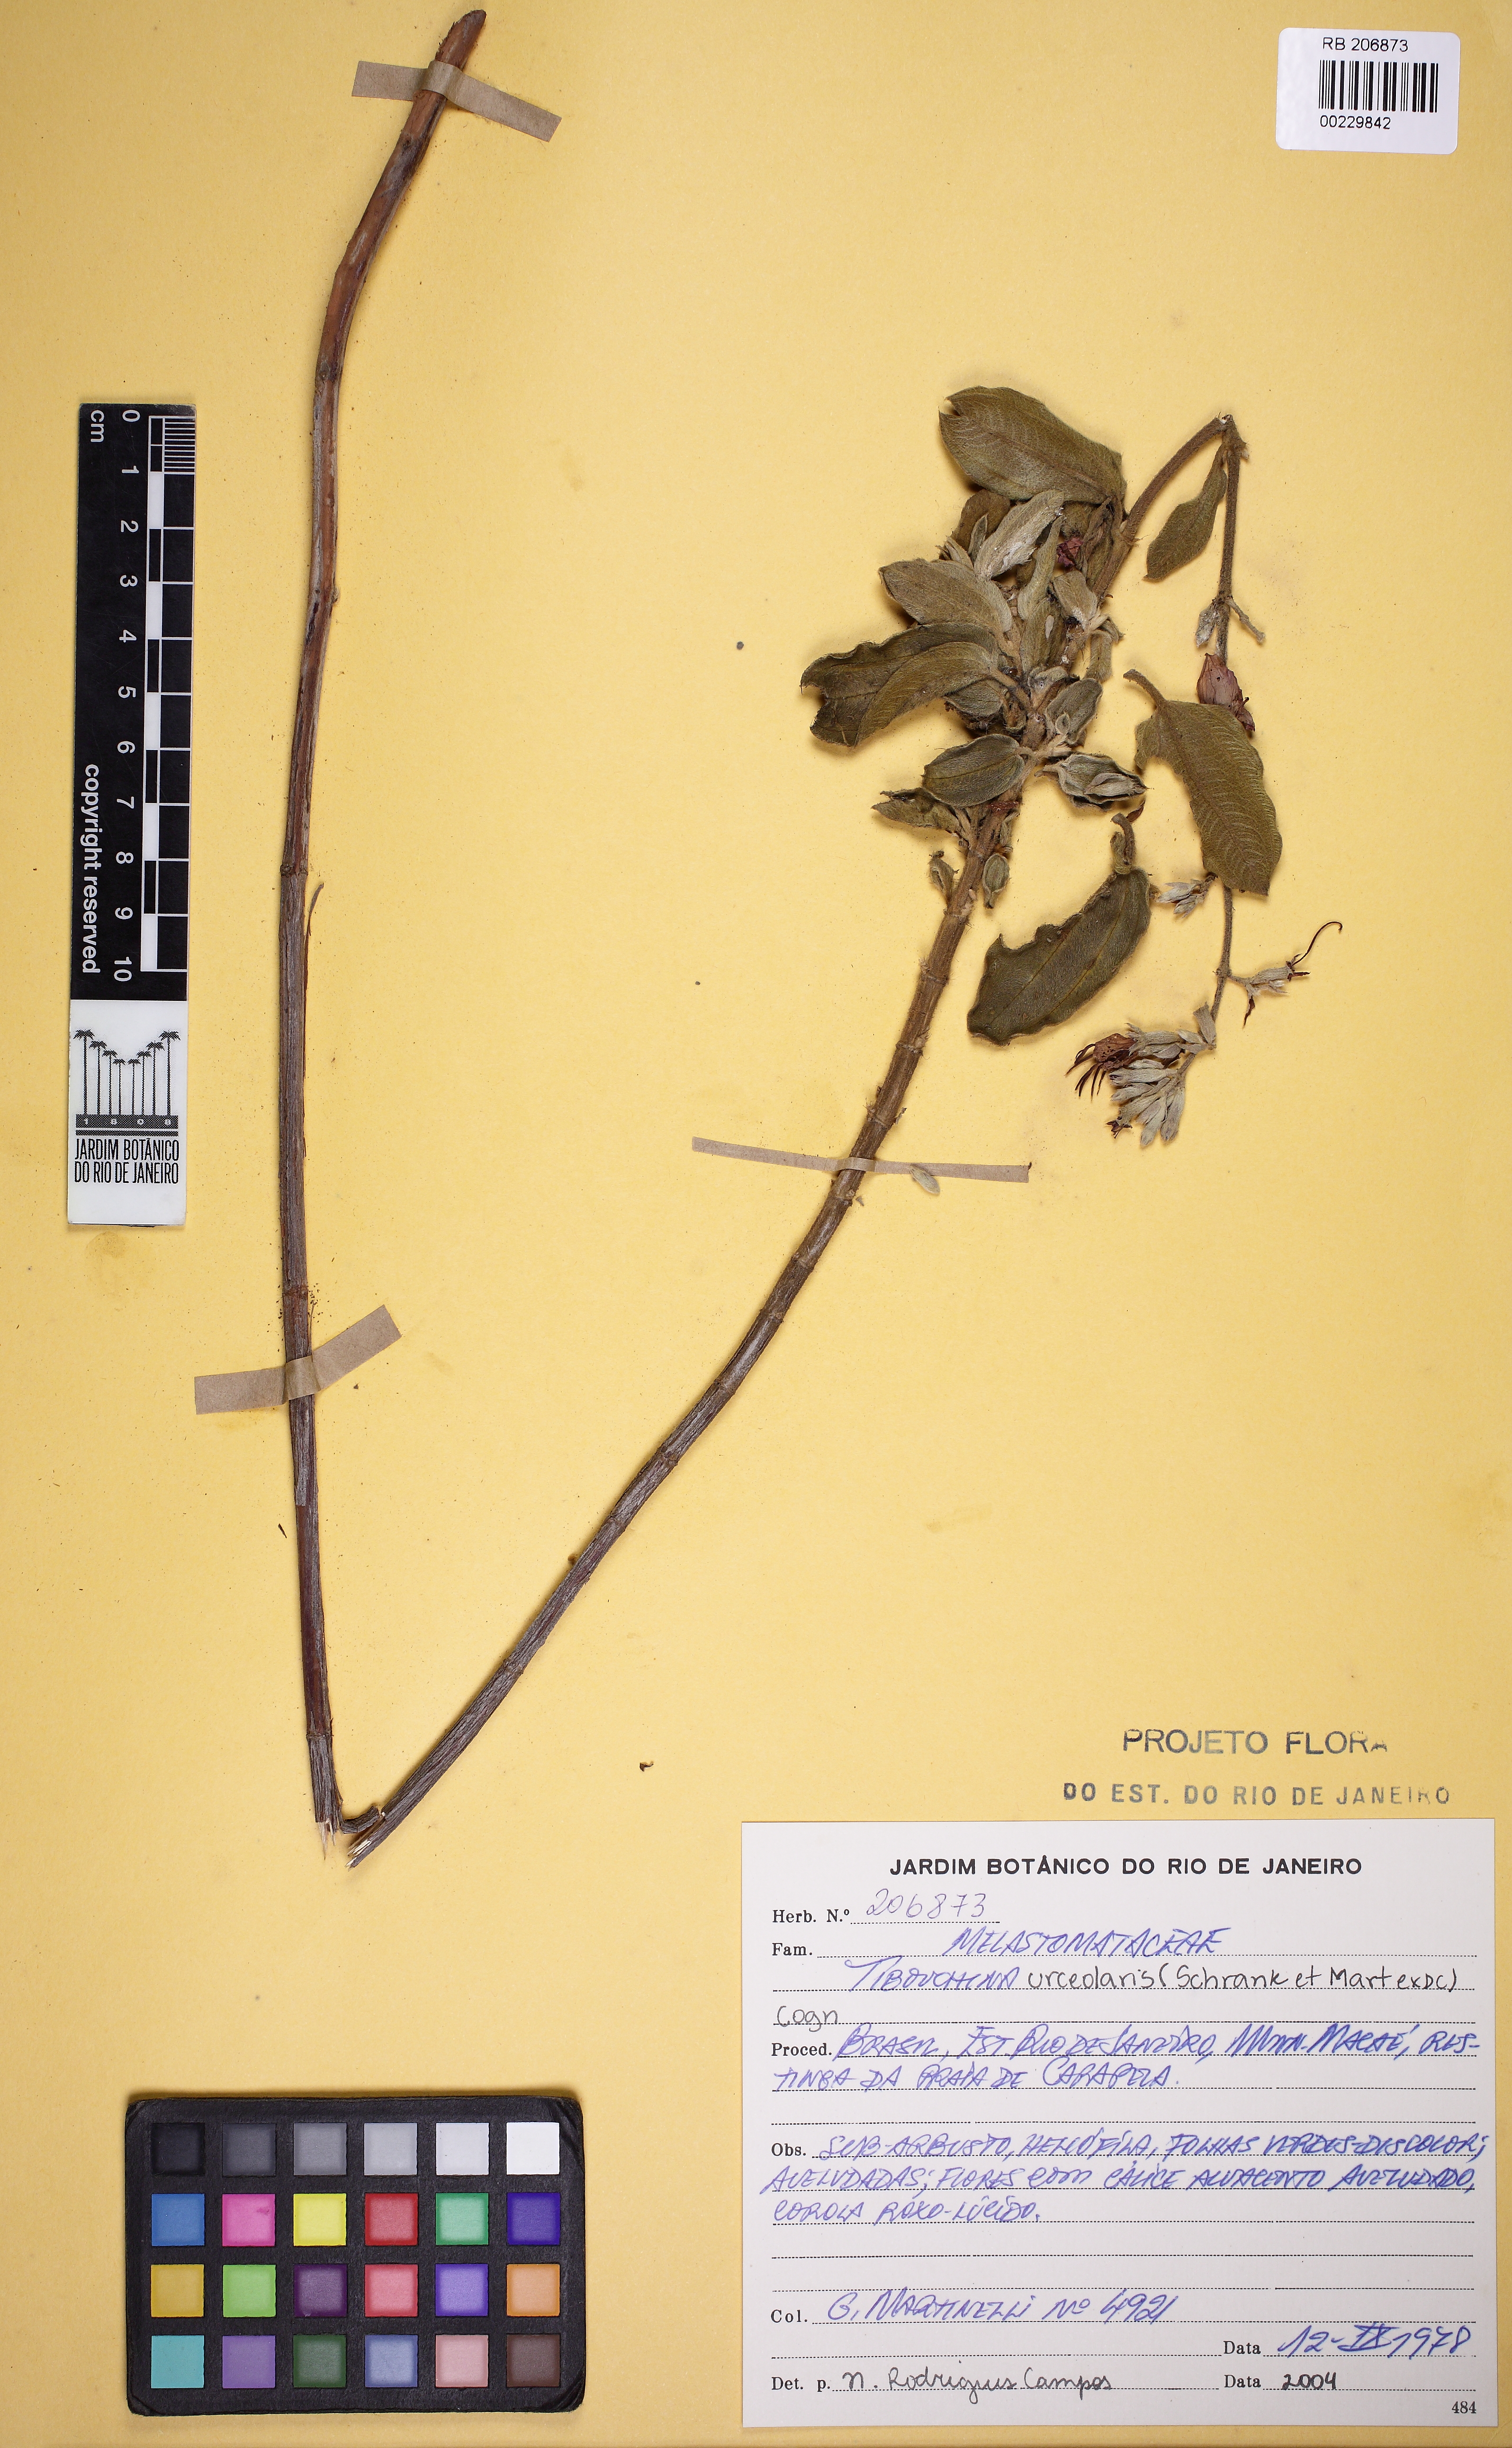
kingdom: Plantae
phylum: Tracheophyta
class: Magnoliopsida
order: Myrtales
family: Melastomataceae
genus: Tibouchina
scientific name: Tibouchina
